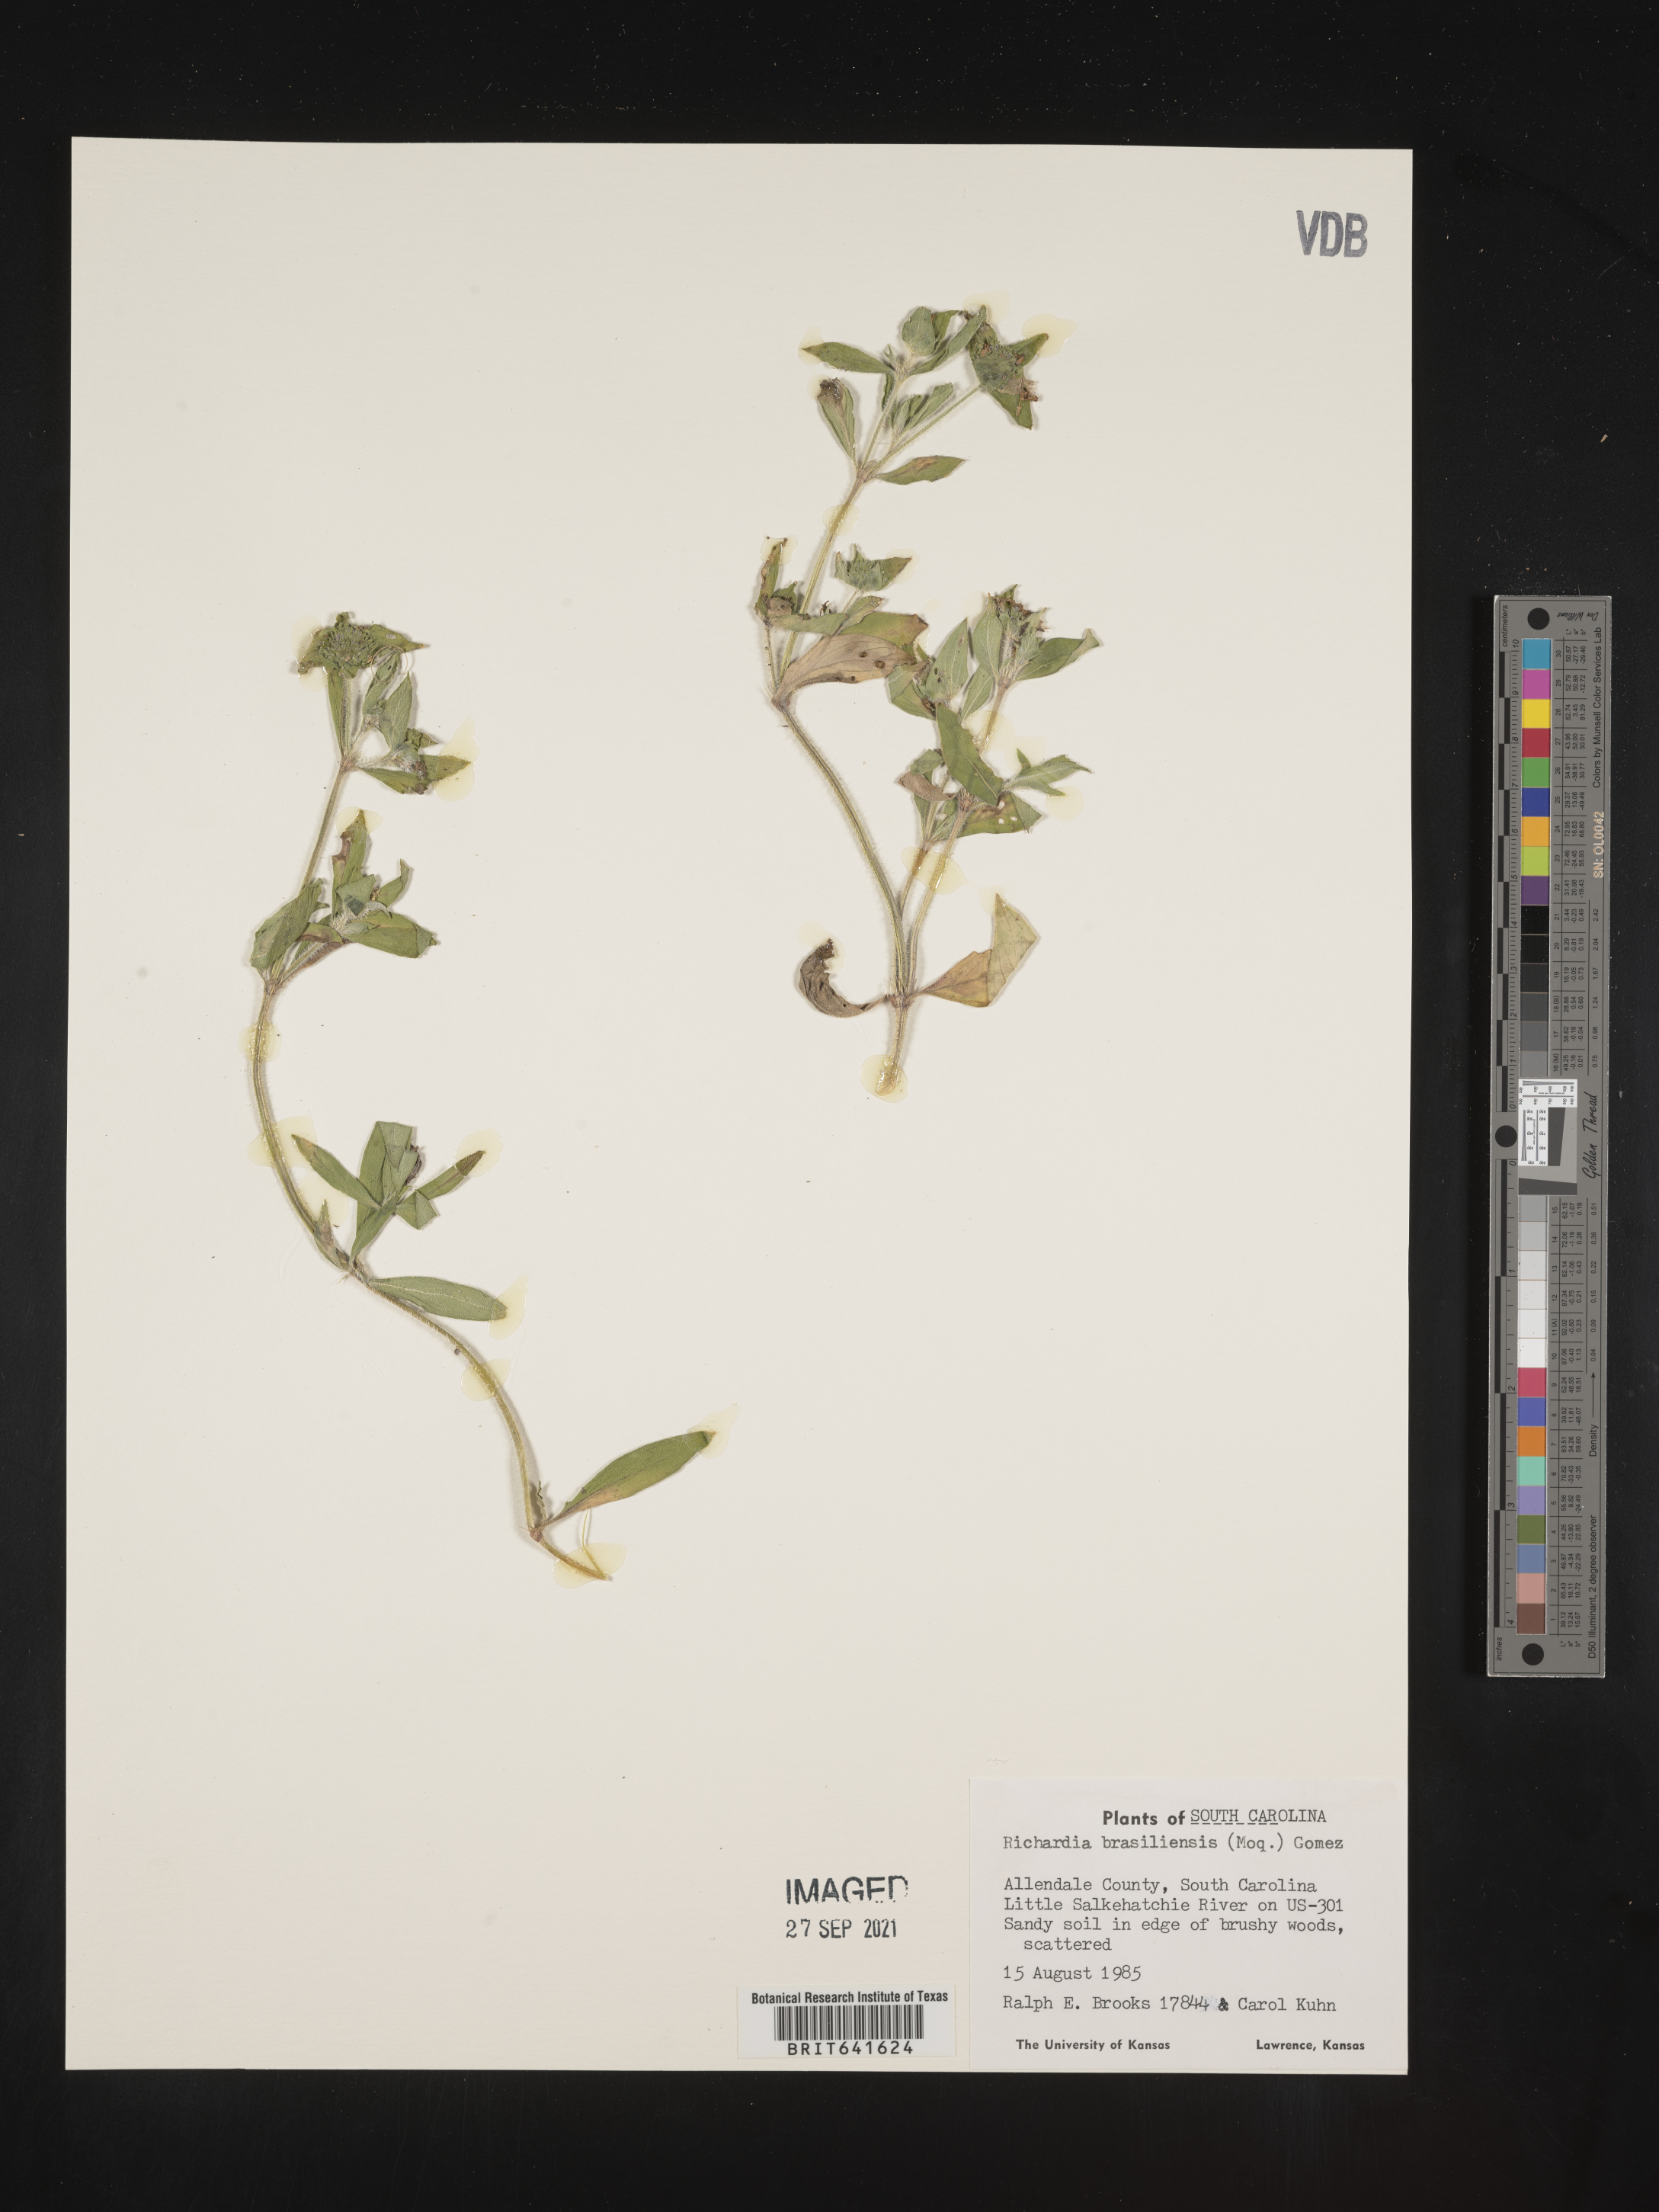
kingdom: Plantae
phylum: Tracheophyta
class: Magnoliopsida
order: Gentianales
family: Rubiaceae
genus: Richardia
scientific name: Richardia brasiliensis
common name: Tropical mexican clover
